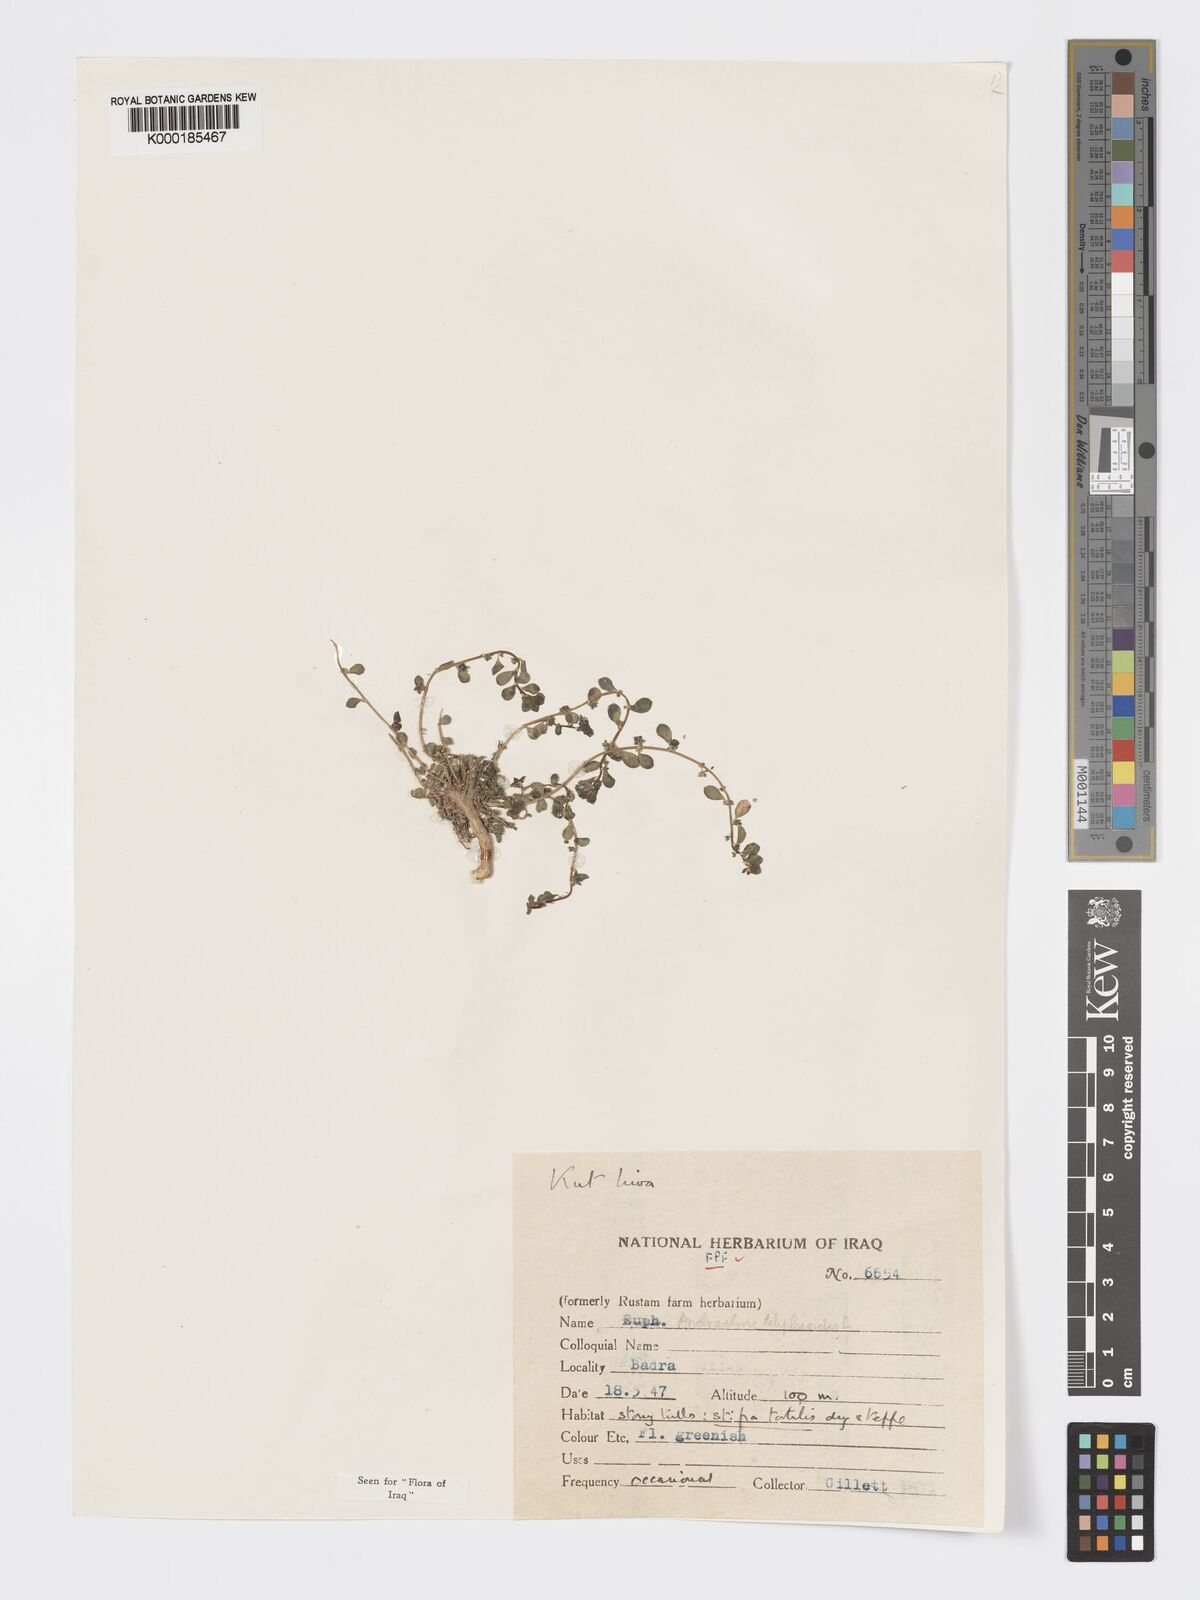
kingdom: Plantae
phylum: Tracheophyta
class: Magnoliopsida
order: Malpighiales
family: Phyllanthaceae
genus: Andrachne
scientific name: Andrachne telephioides
